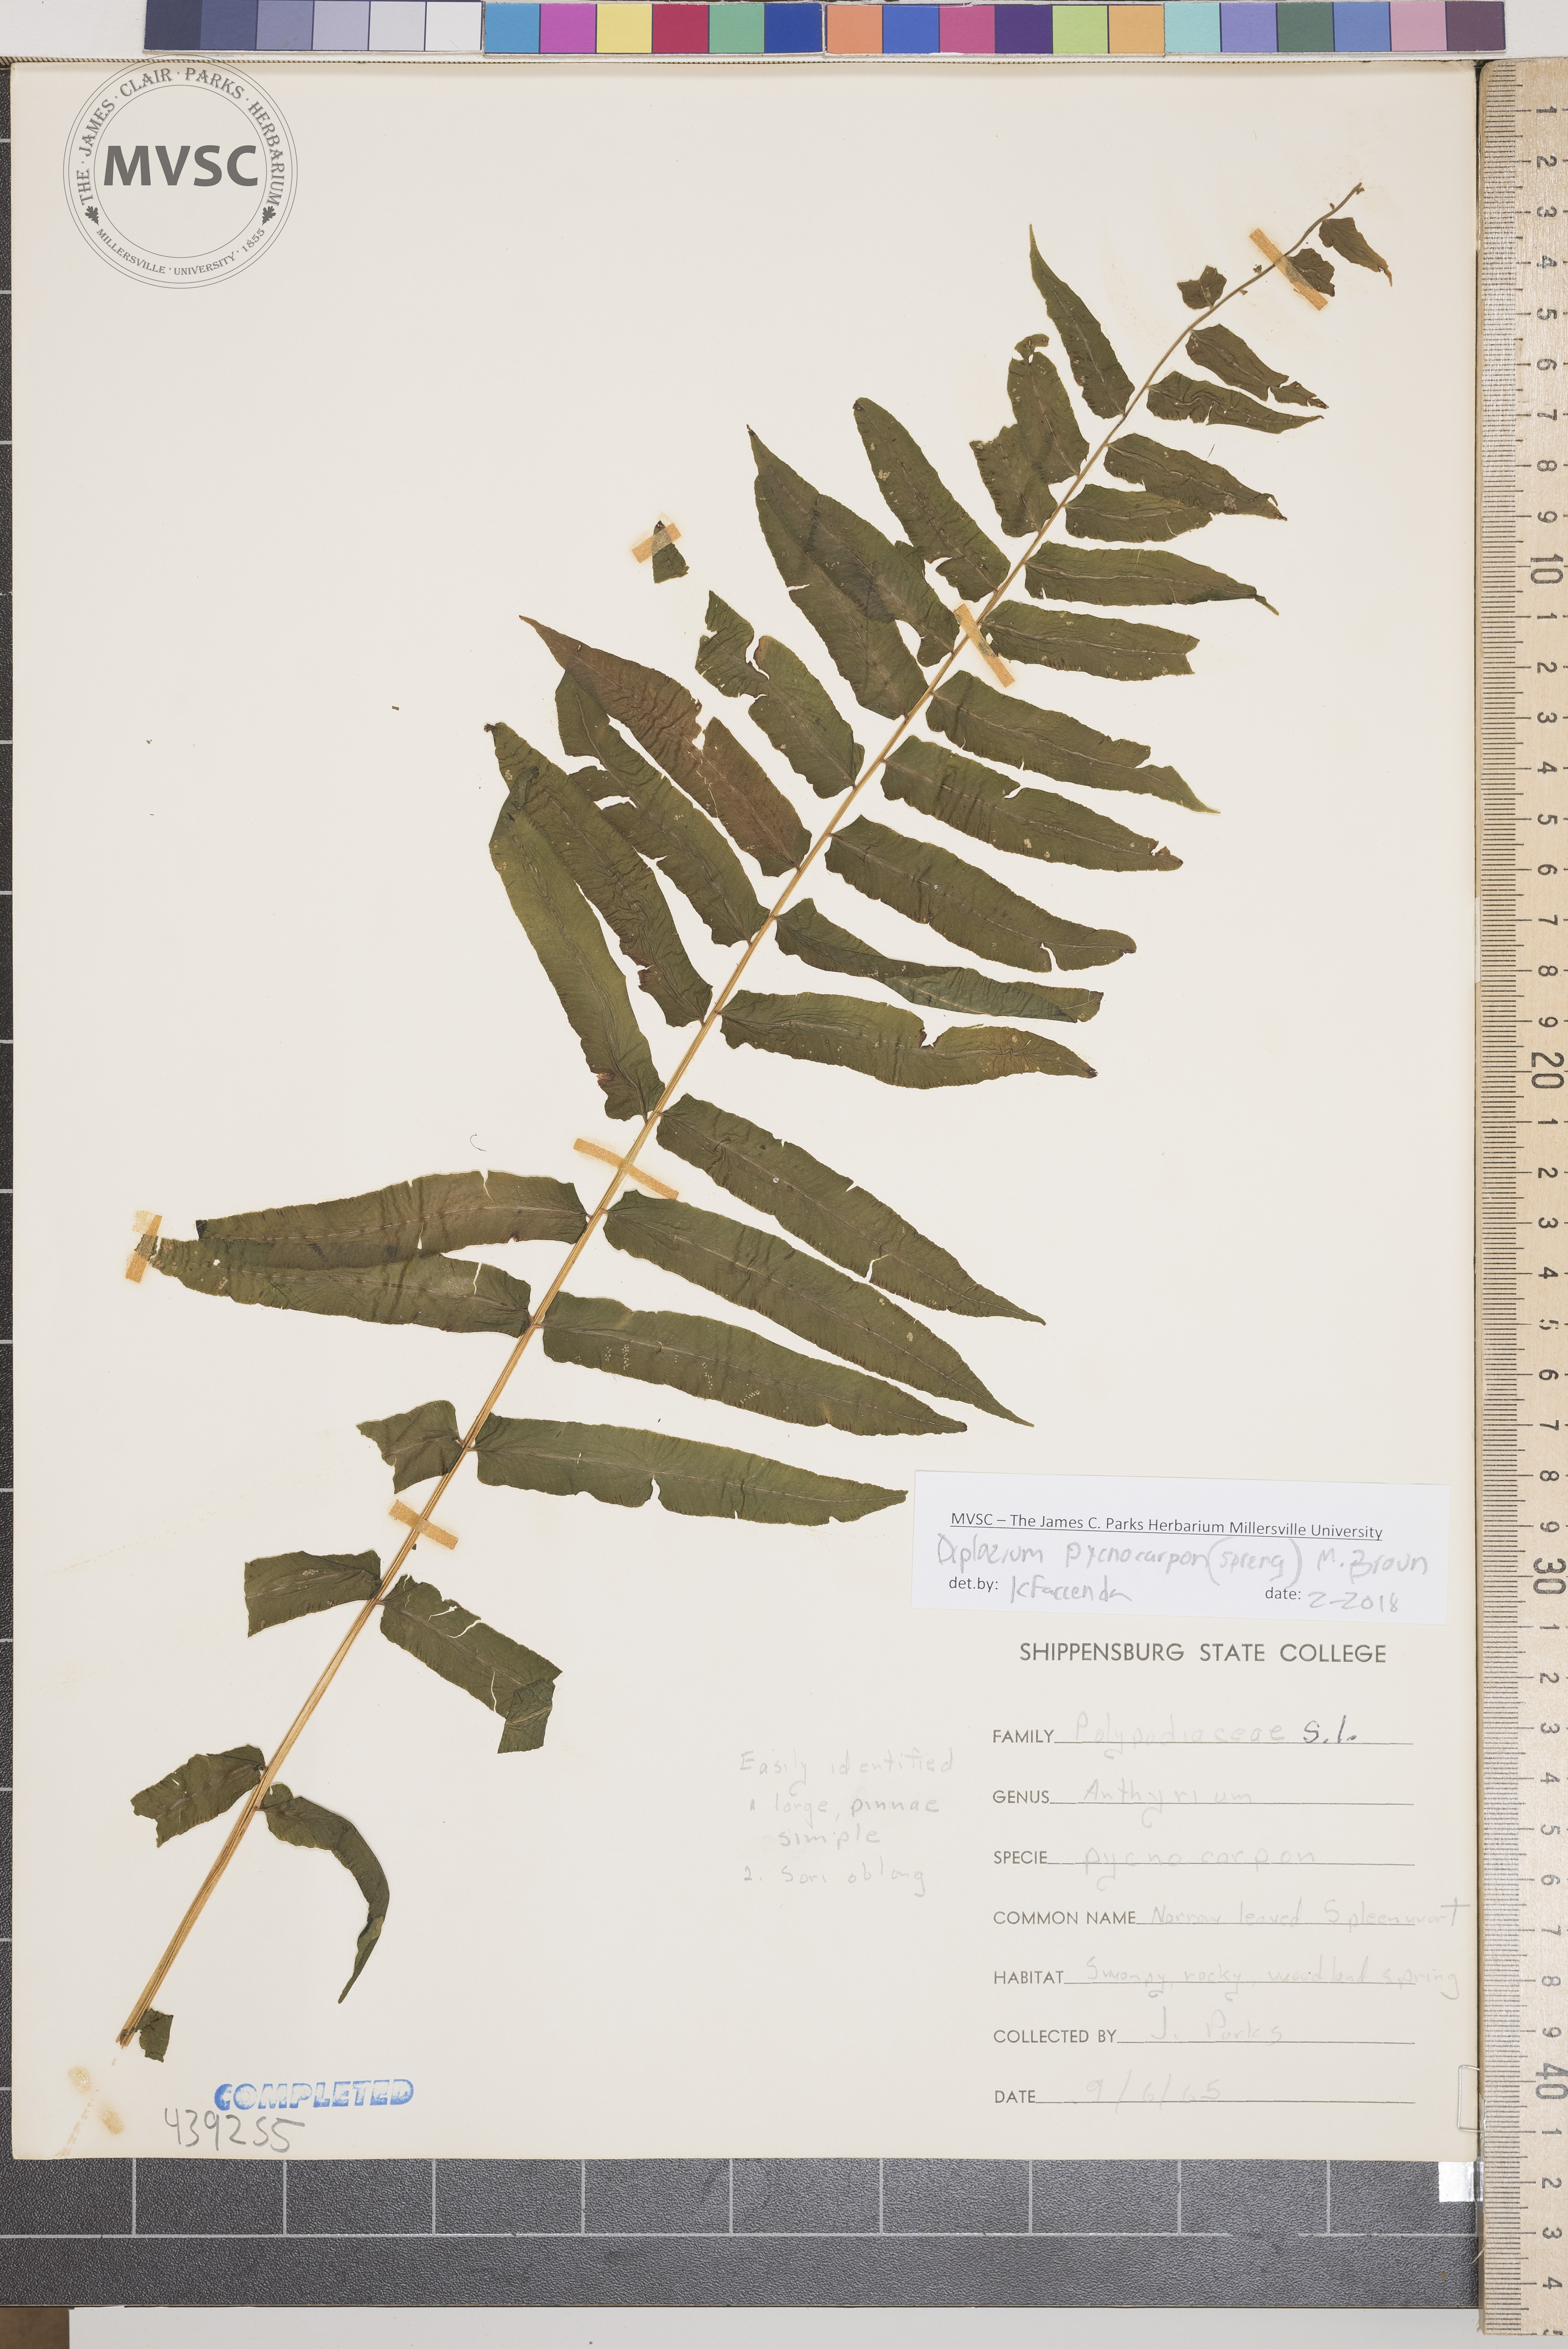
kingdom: Plantae
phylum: Tracheophyta
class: Polypodiopsida
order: Polypodiales
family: Diplaziopsidaceae
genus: Homalosorus
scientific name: Homalosorus pycnocarpos
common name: Glade fern
